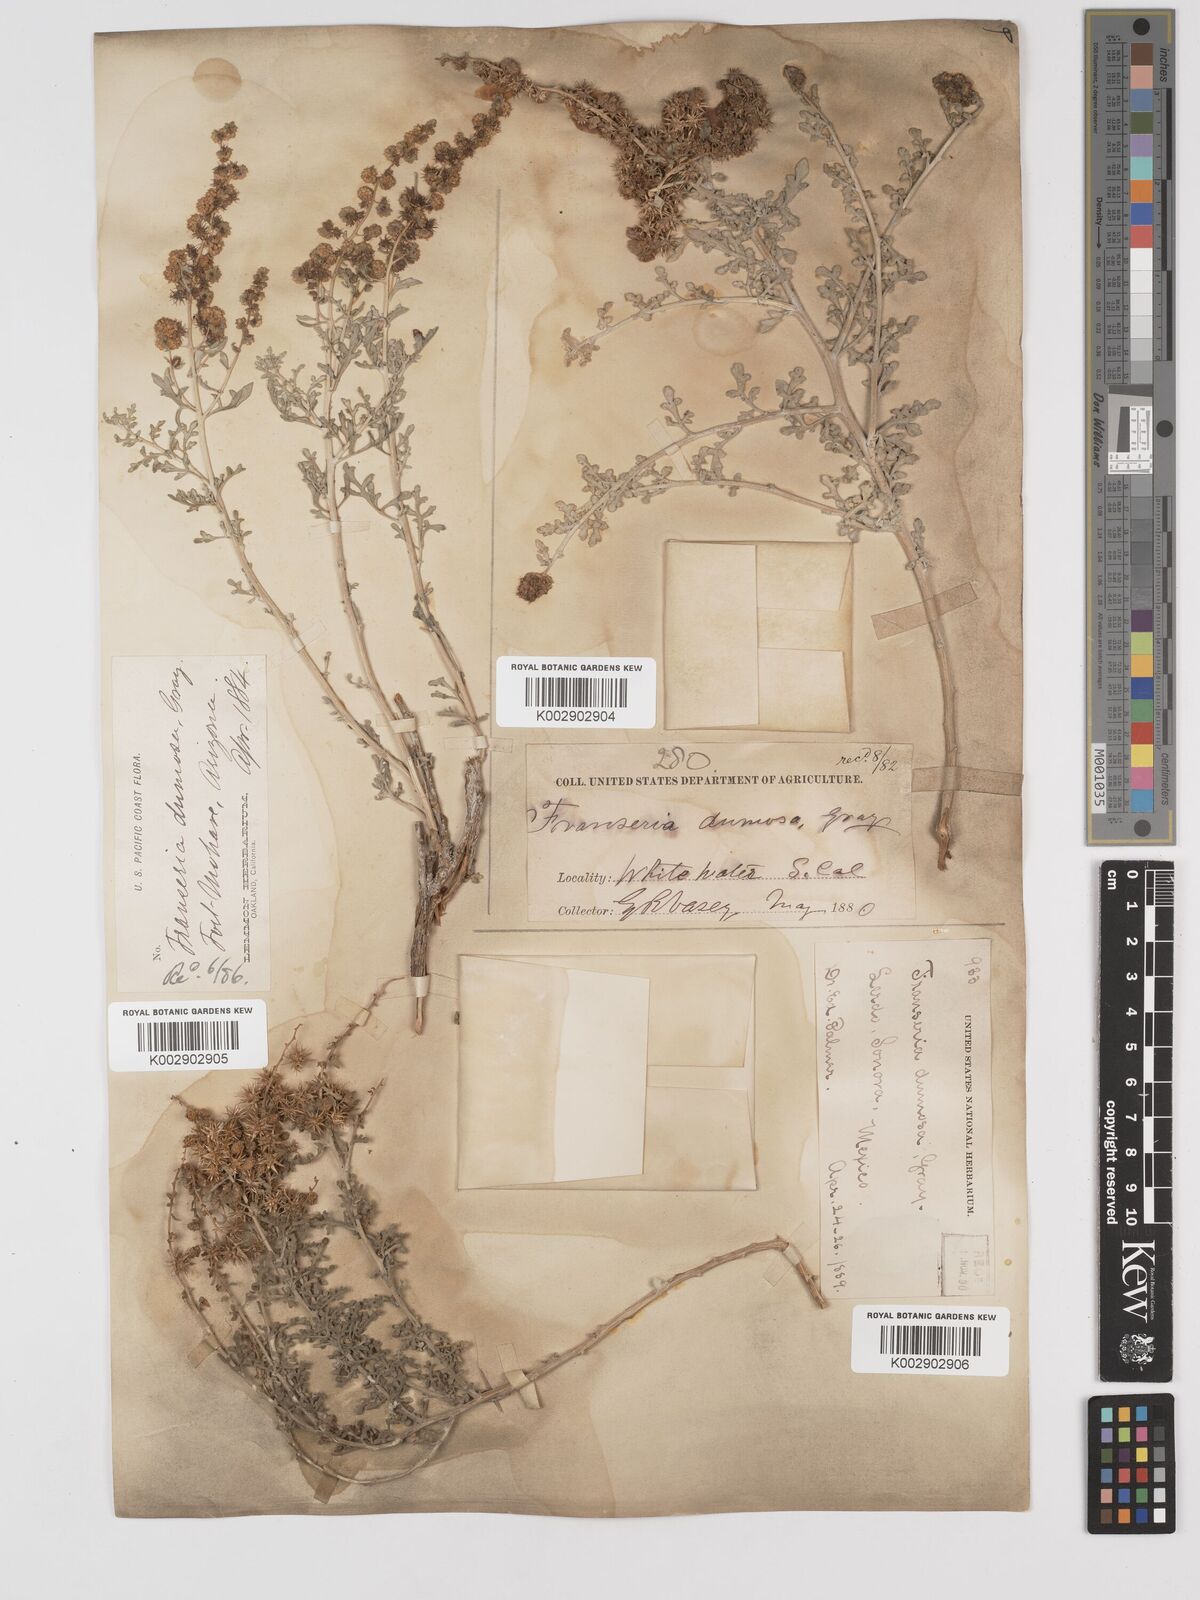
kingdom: Plantae
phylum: Tracheophyta
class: Magnoliopsida
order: Asterales
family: Asteraceae
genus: Ambrosia
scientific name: Ambrosia dumosa
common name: Bur-sage
